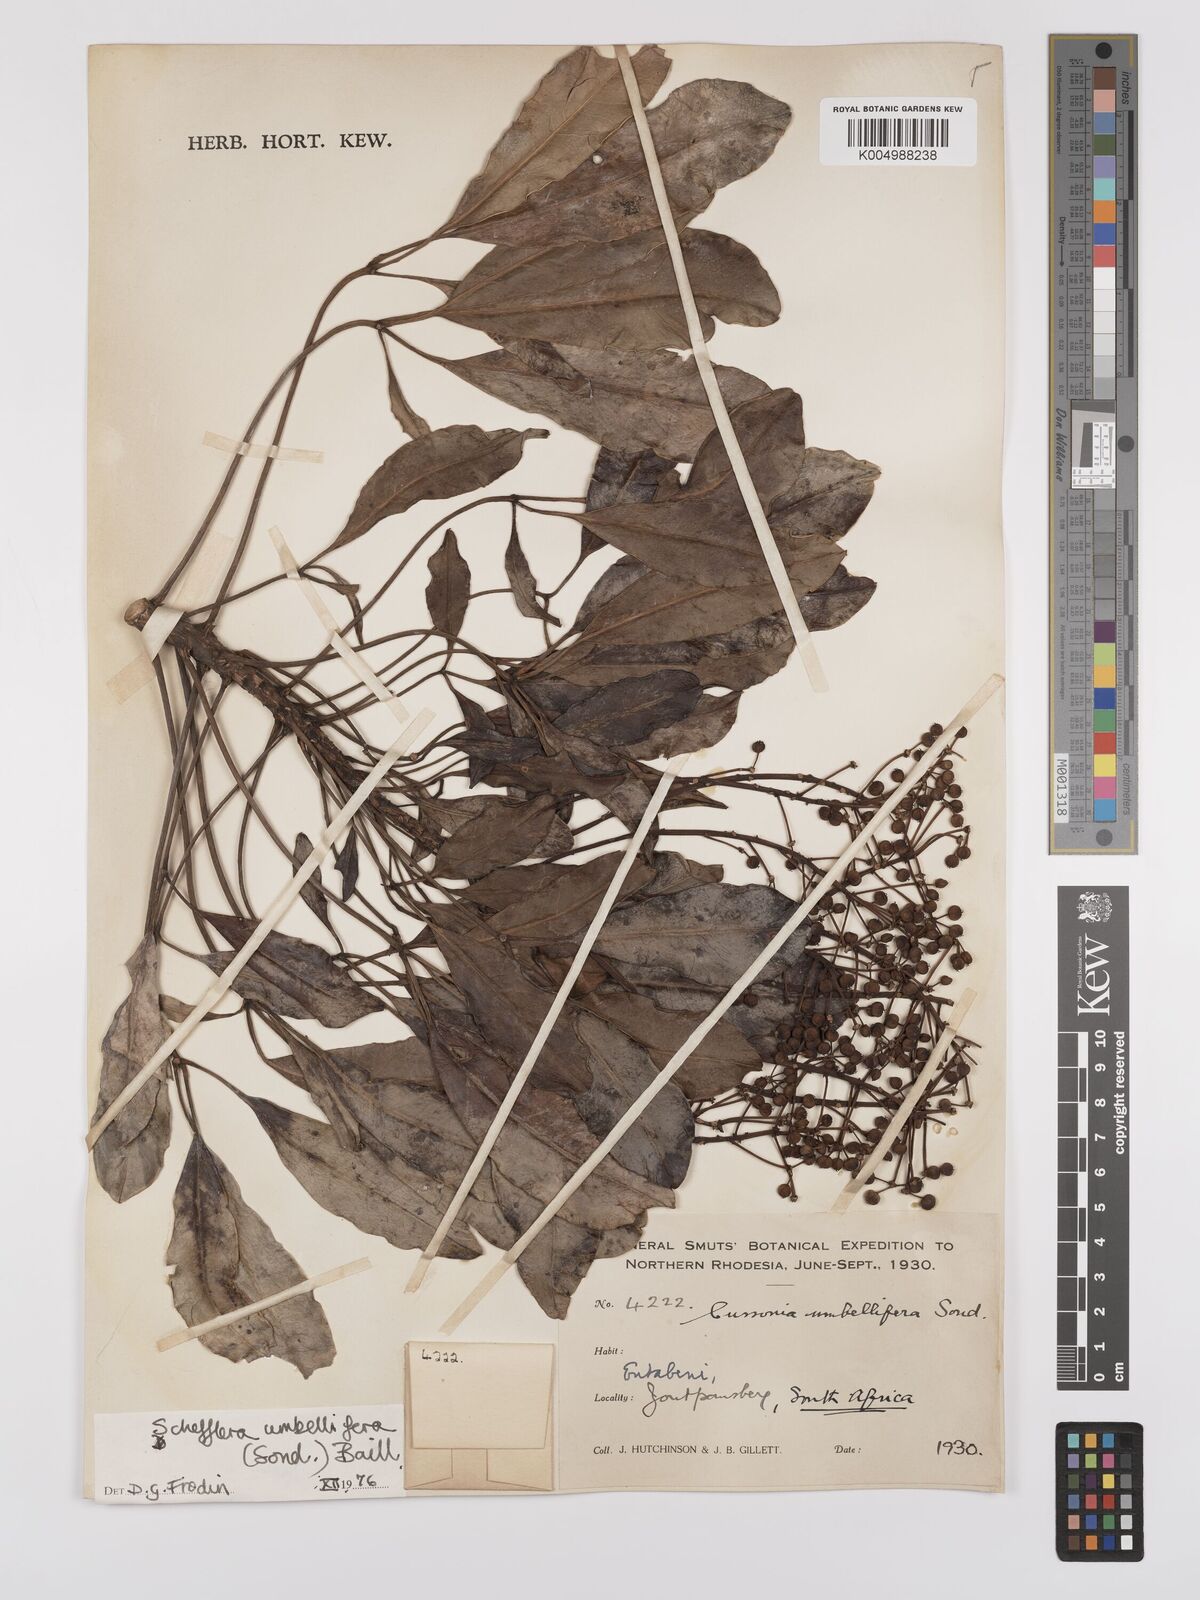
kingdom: Plantae
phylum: Tracheophyta
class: Magnoliopsida
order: Apiales
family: Araliaceae
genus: Neocussonia
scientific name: Neocussonia umbellifera
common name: False cabbage tree
